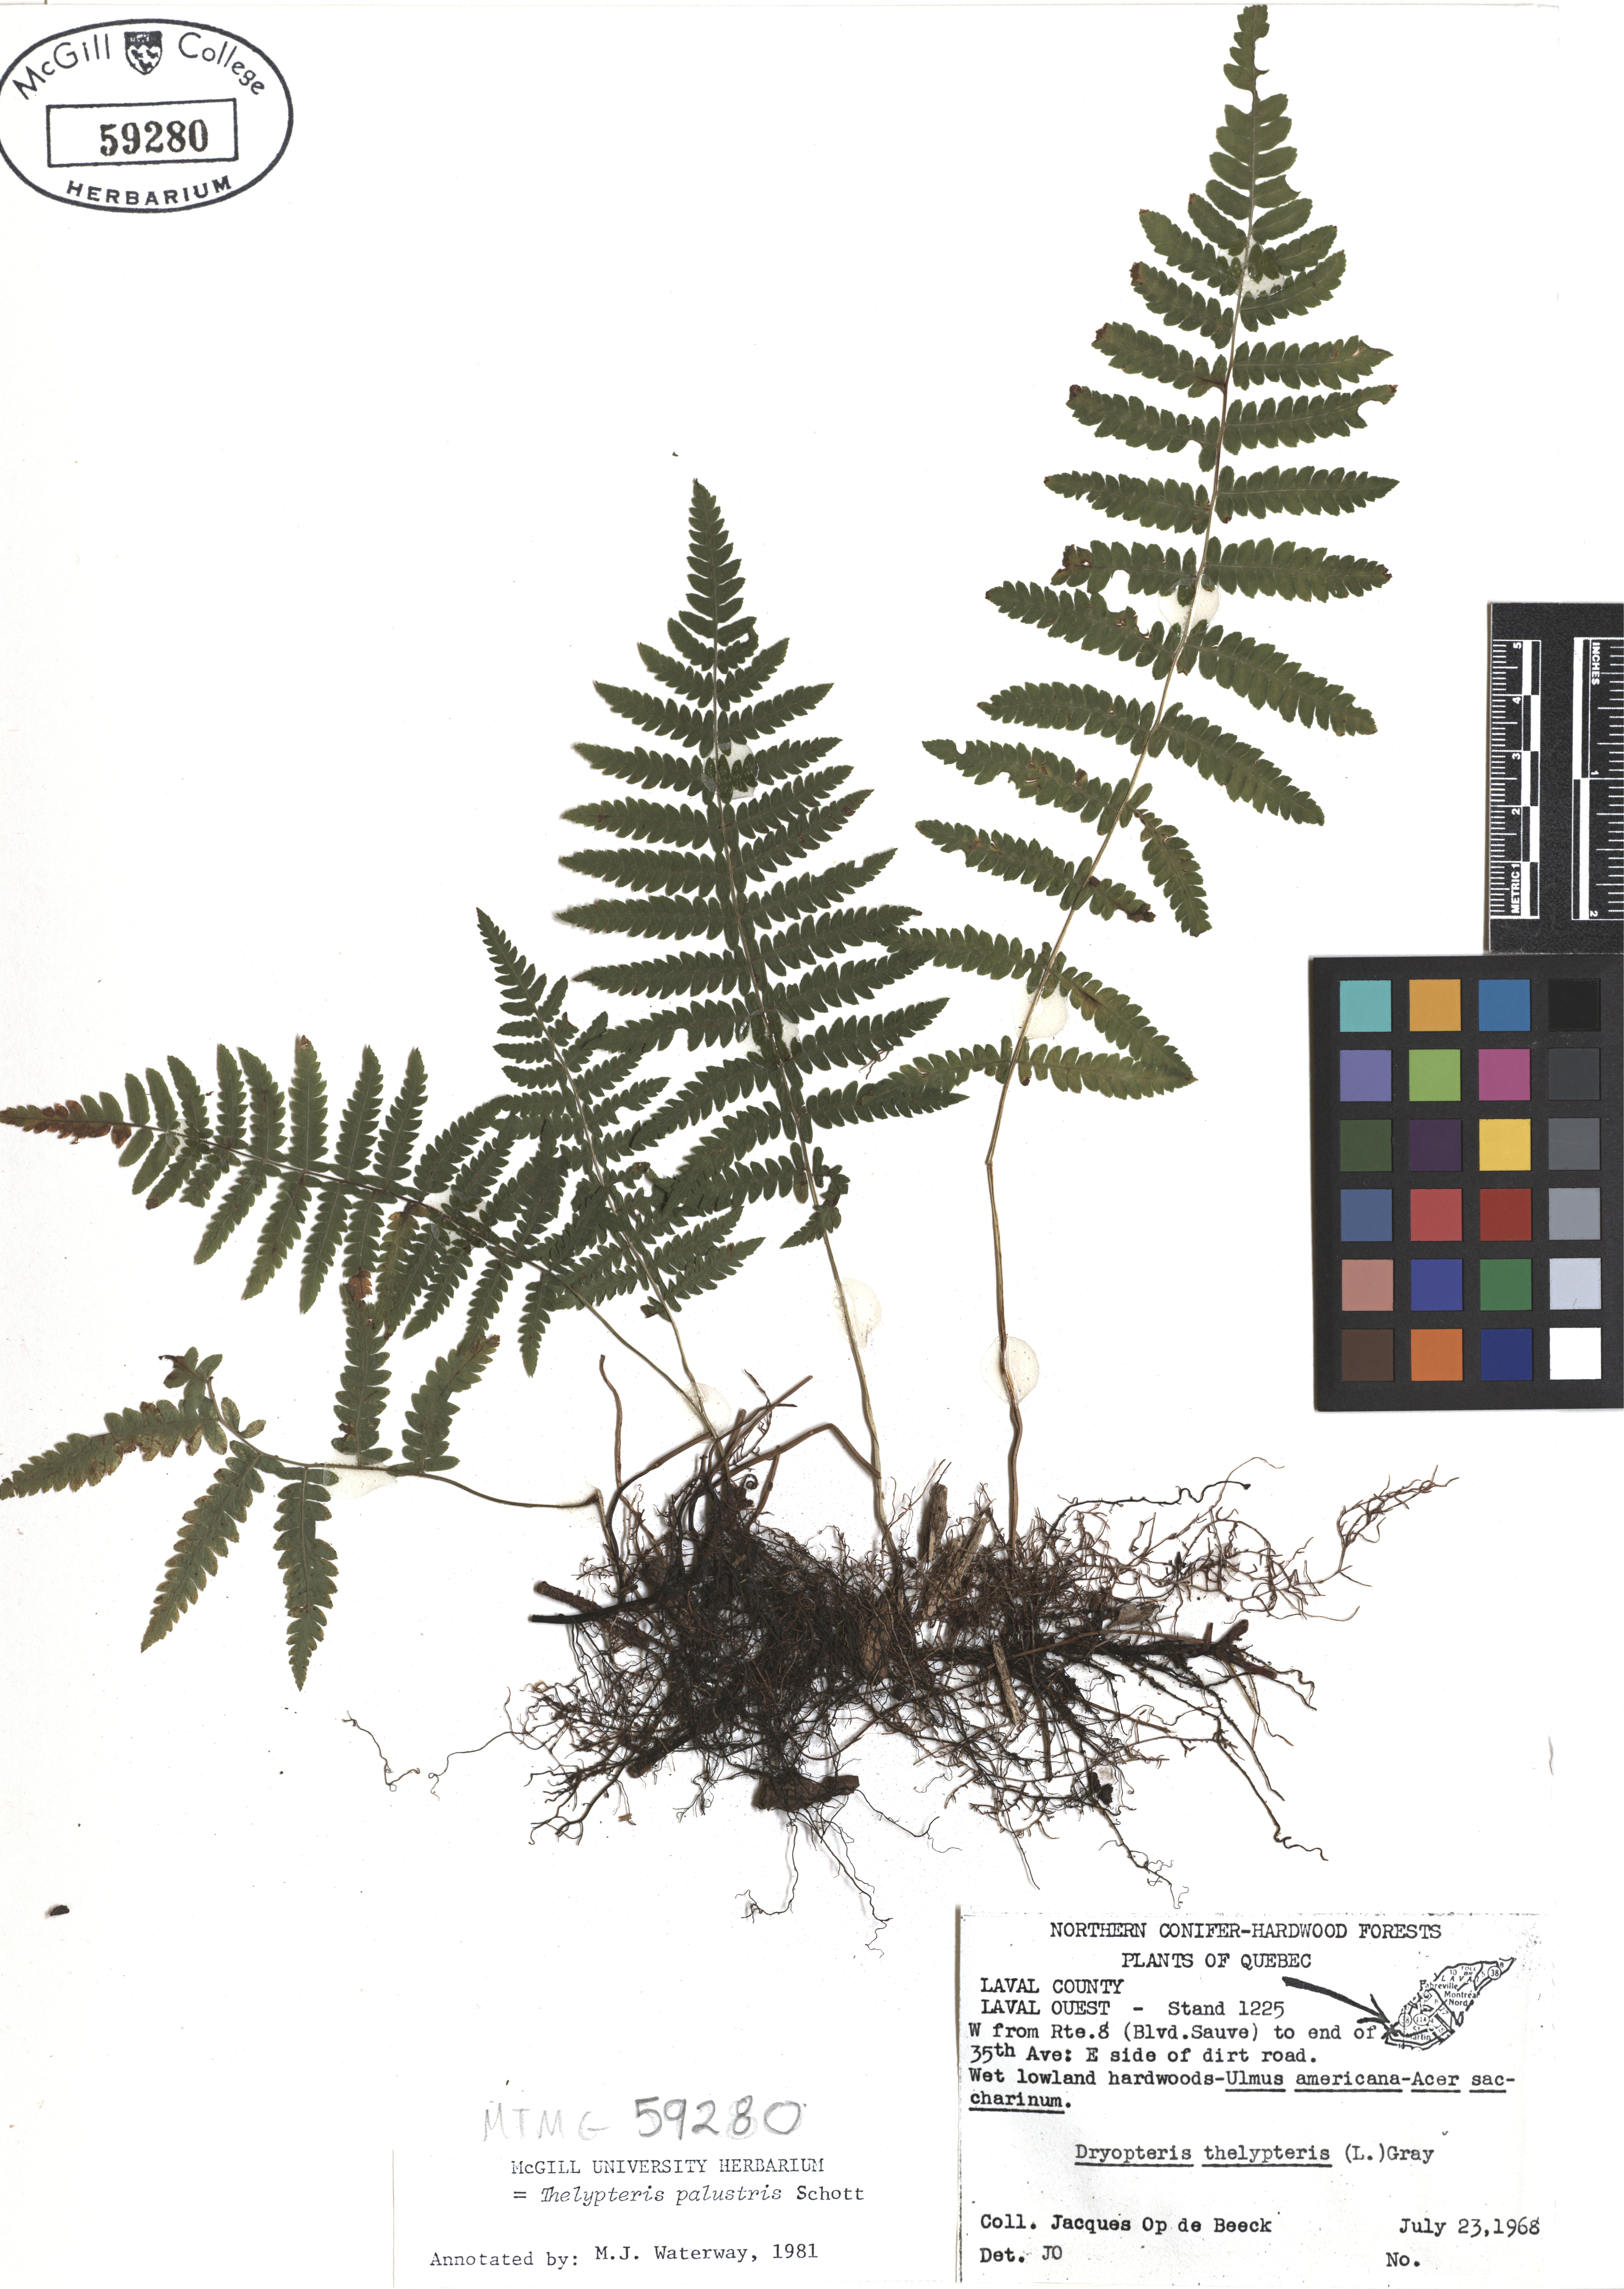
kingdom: Plantae
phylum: Tracheophyta
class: Polypodiopsida
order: Polypodiales
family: Thelypteridaceae
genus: Thelypteris
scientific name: Thelypteris palustris
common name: Marsh fern
